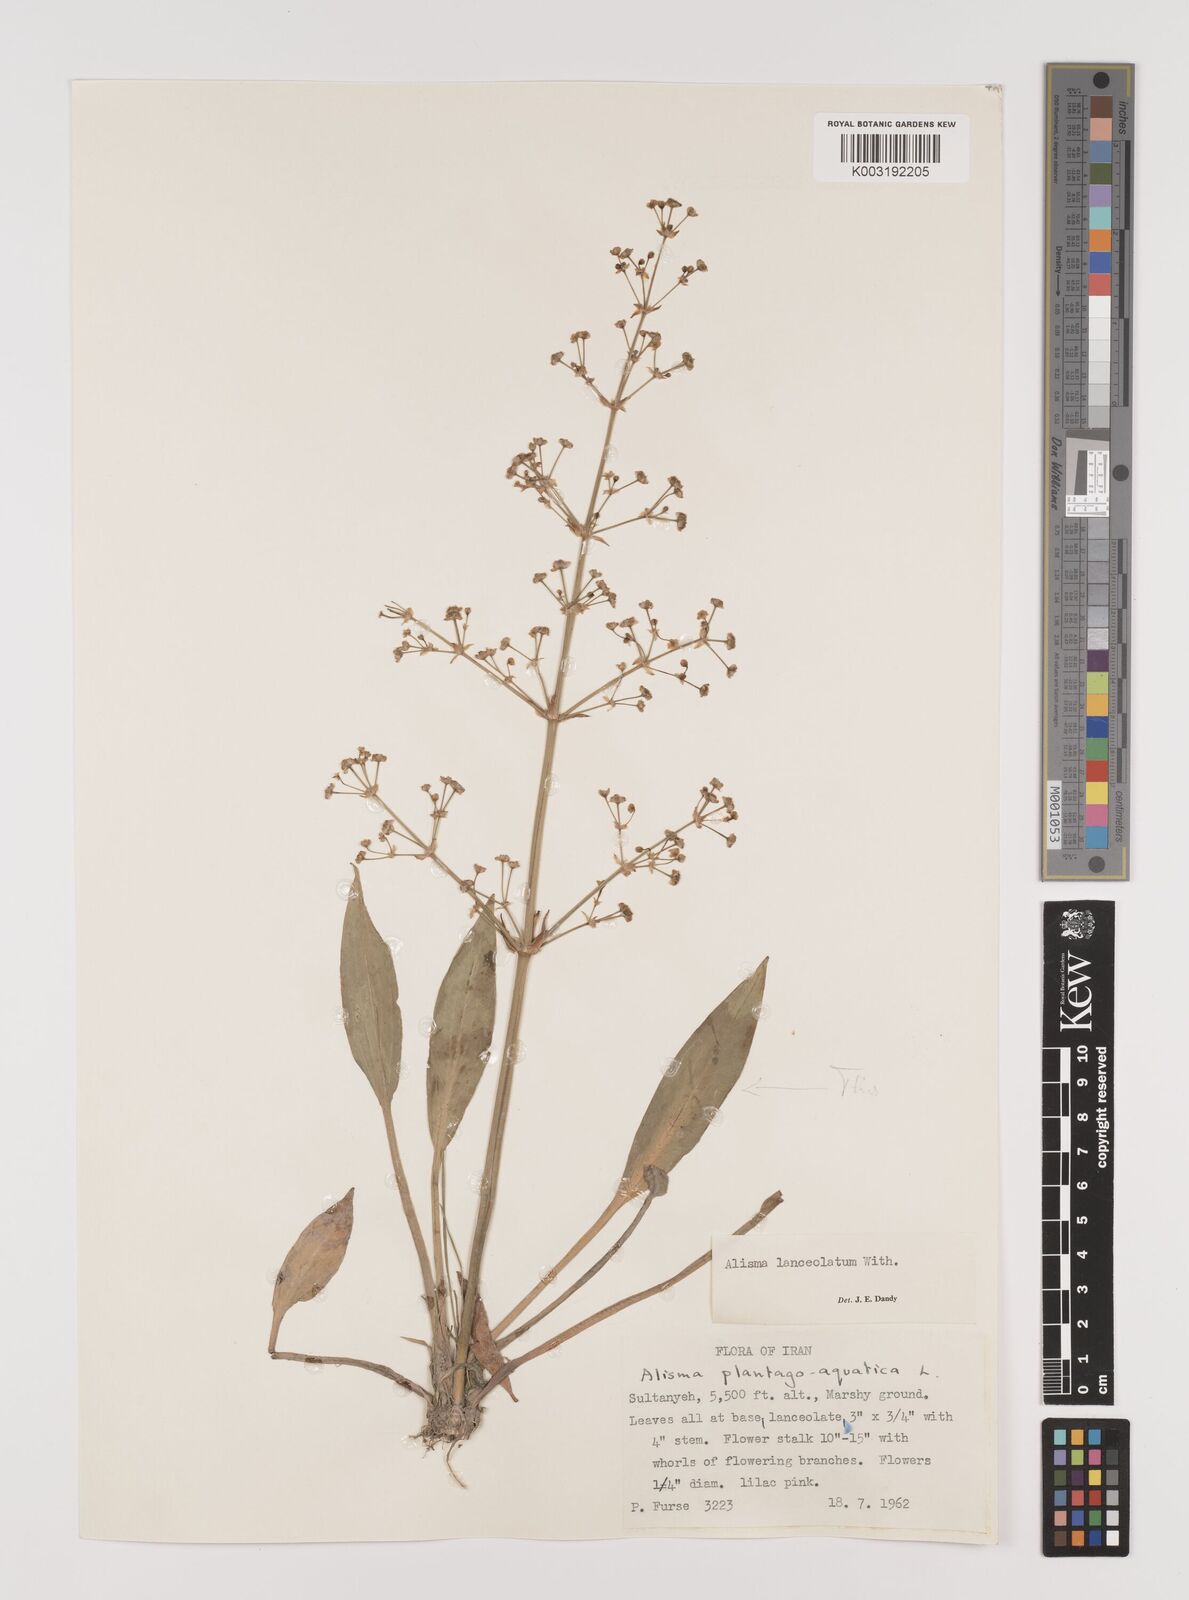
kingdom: Plantae
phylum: Tracheophyta
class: Liliopsida
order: Alismatales
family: Alismataceae
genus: Alisma
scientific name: Alisma lanceolatum
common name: Narrow-leaved water-plantain
